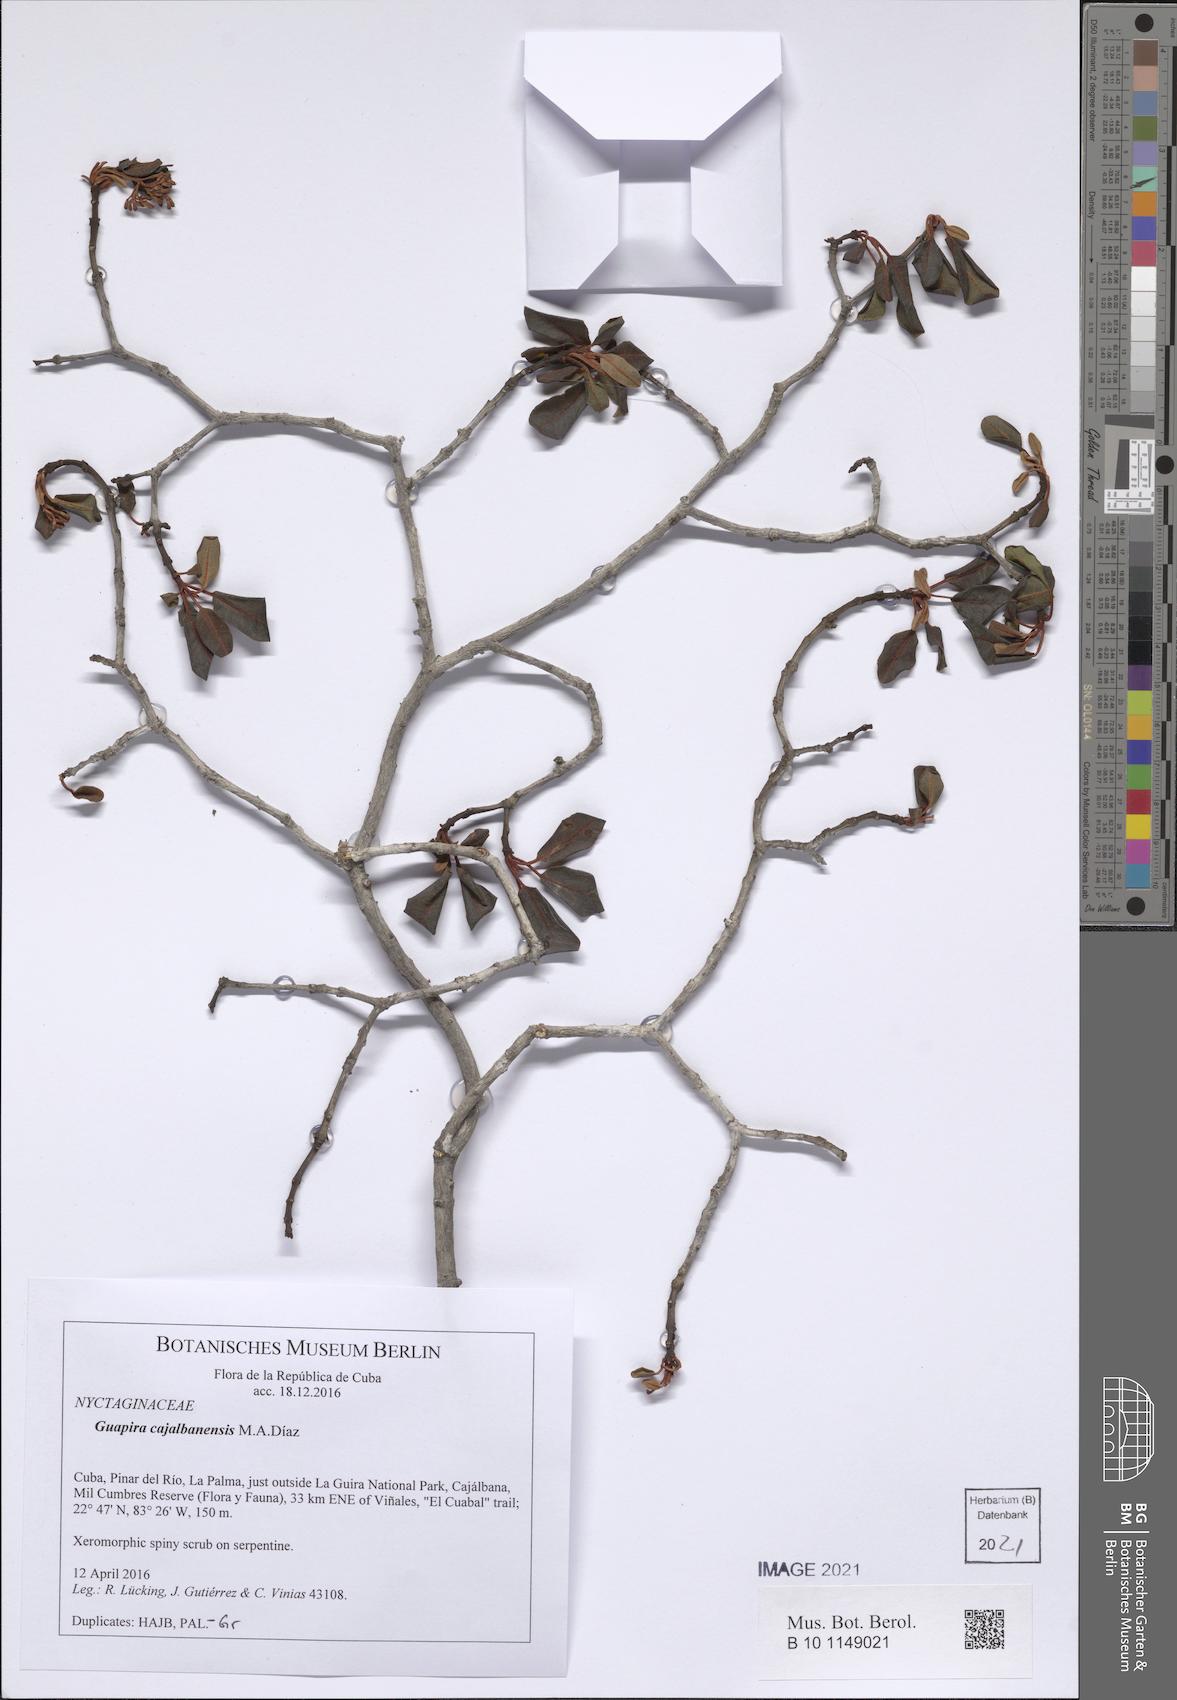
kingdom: Plantae
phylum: Tracheophyta
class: Magnoliopsida
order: Caryophyllales
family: Nyctaginaceae
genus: Guapira
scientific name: Guapira cajalbanensis
